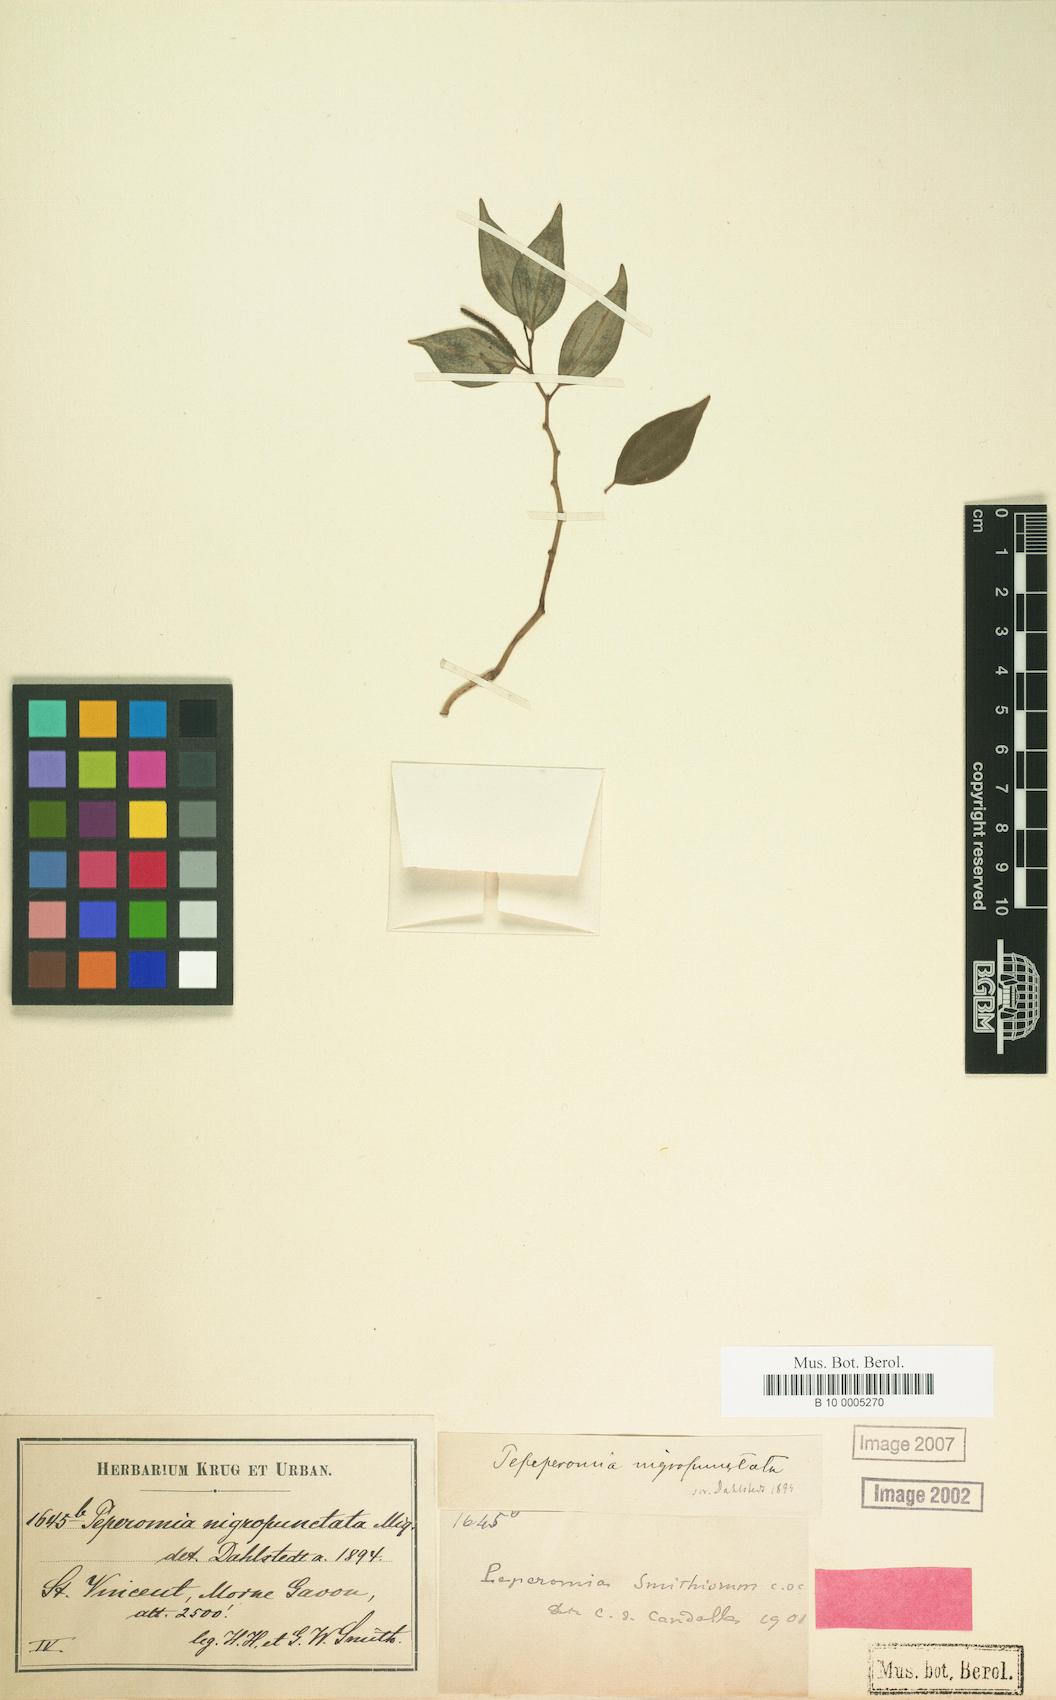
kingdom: Plantae
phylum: Tracheophyta
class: Magnoliopsida
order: Piperales
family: Piperaceae
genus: Peperomia
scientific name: Peperomia smithiana
